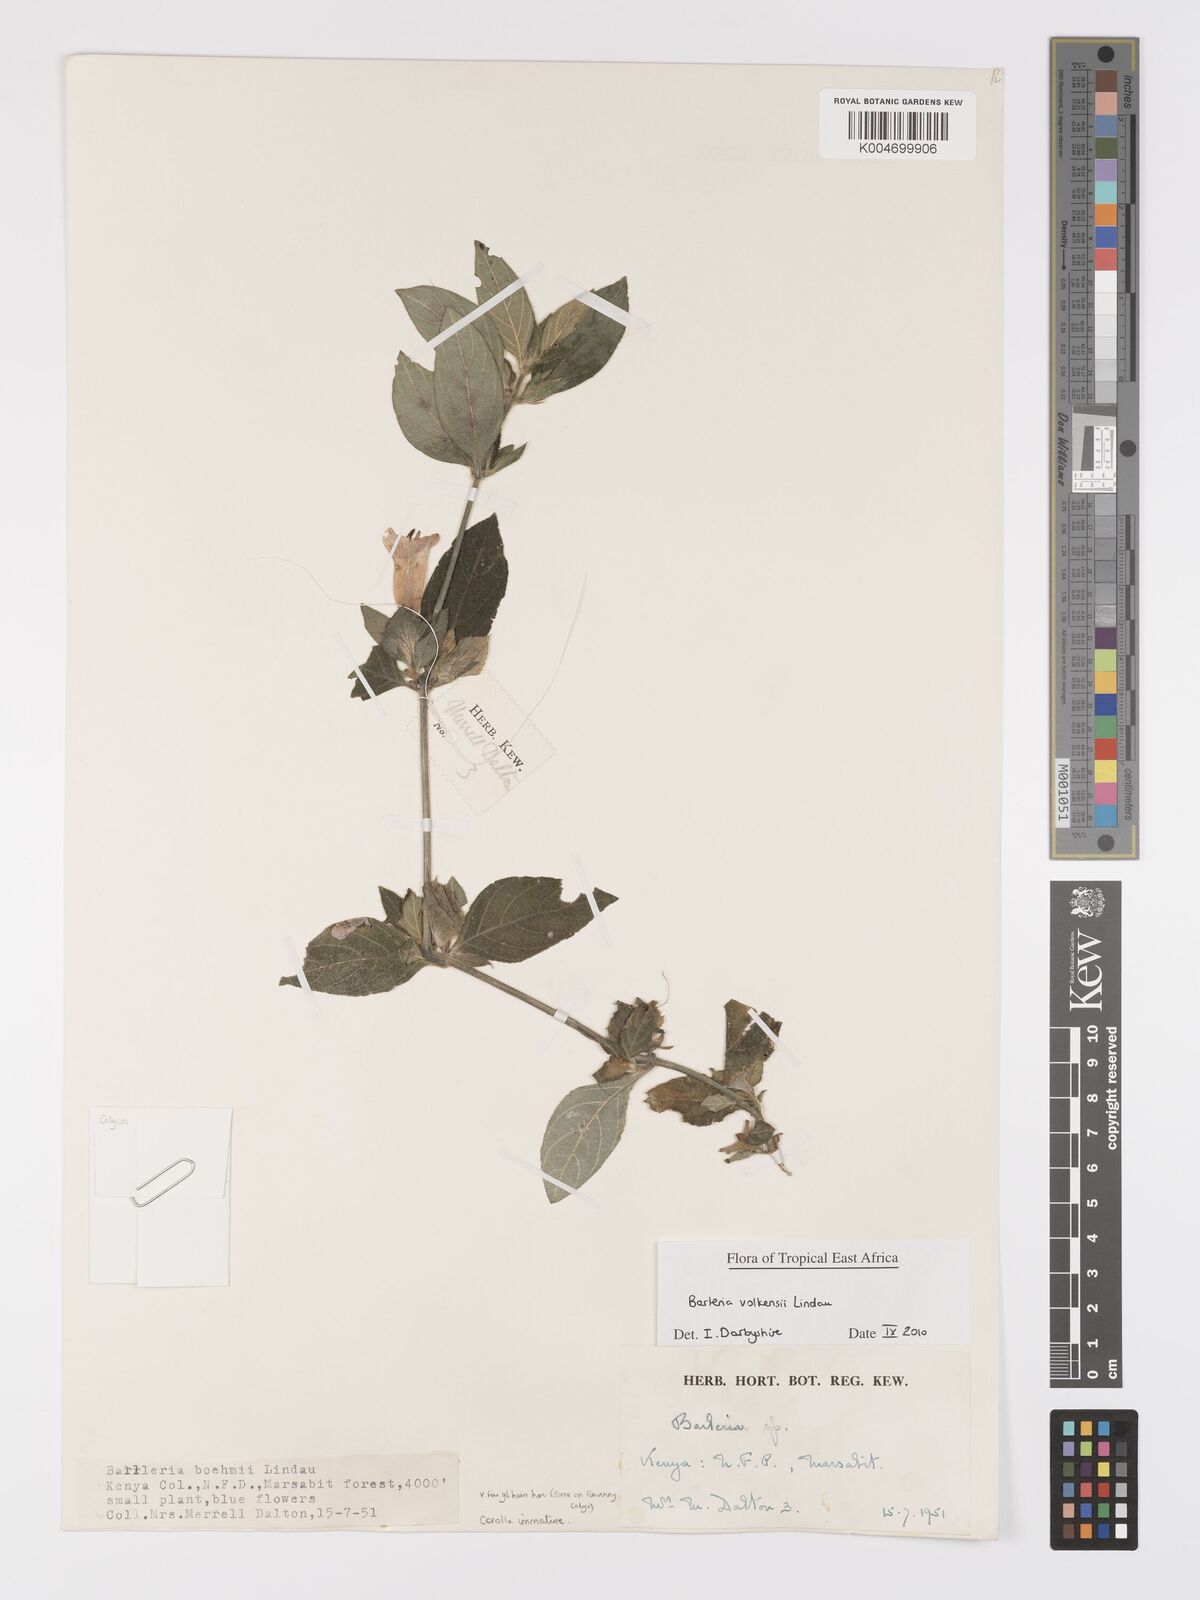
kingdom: Plantae
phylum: Tracheophyta
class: Magnoliopsida
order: Lamiales
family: Acanthaceae
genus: Barleria
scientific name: Barleria volkensii
